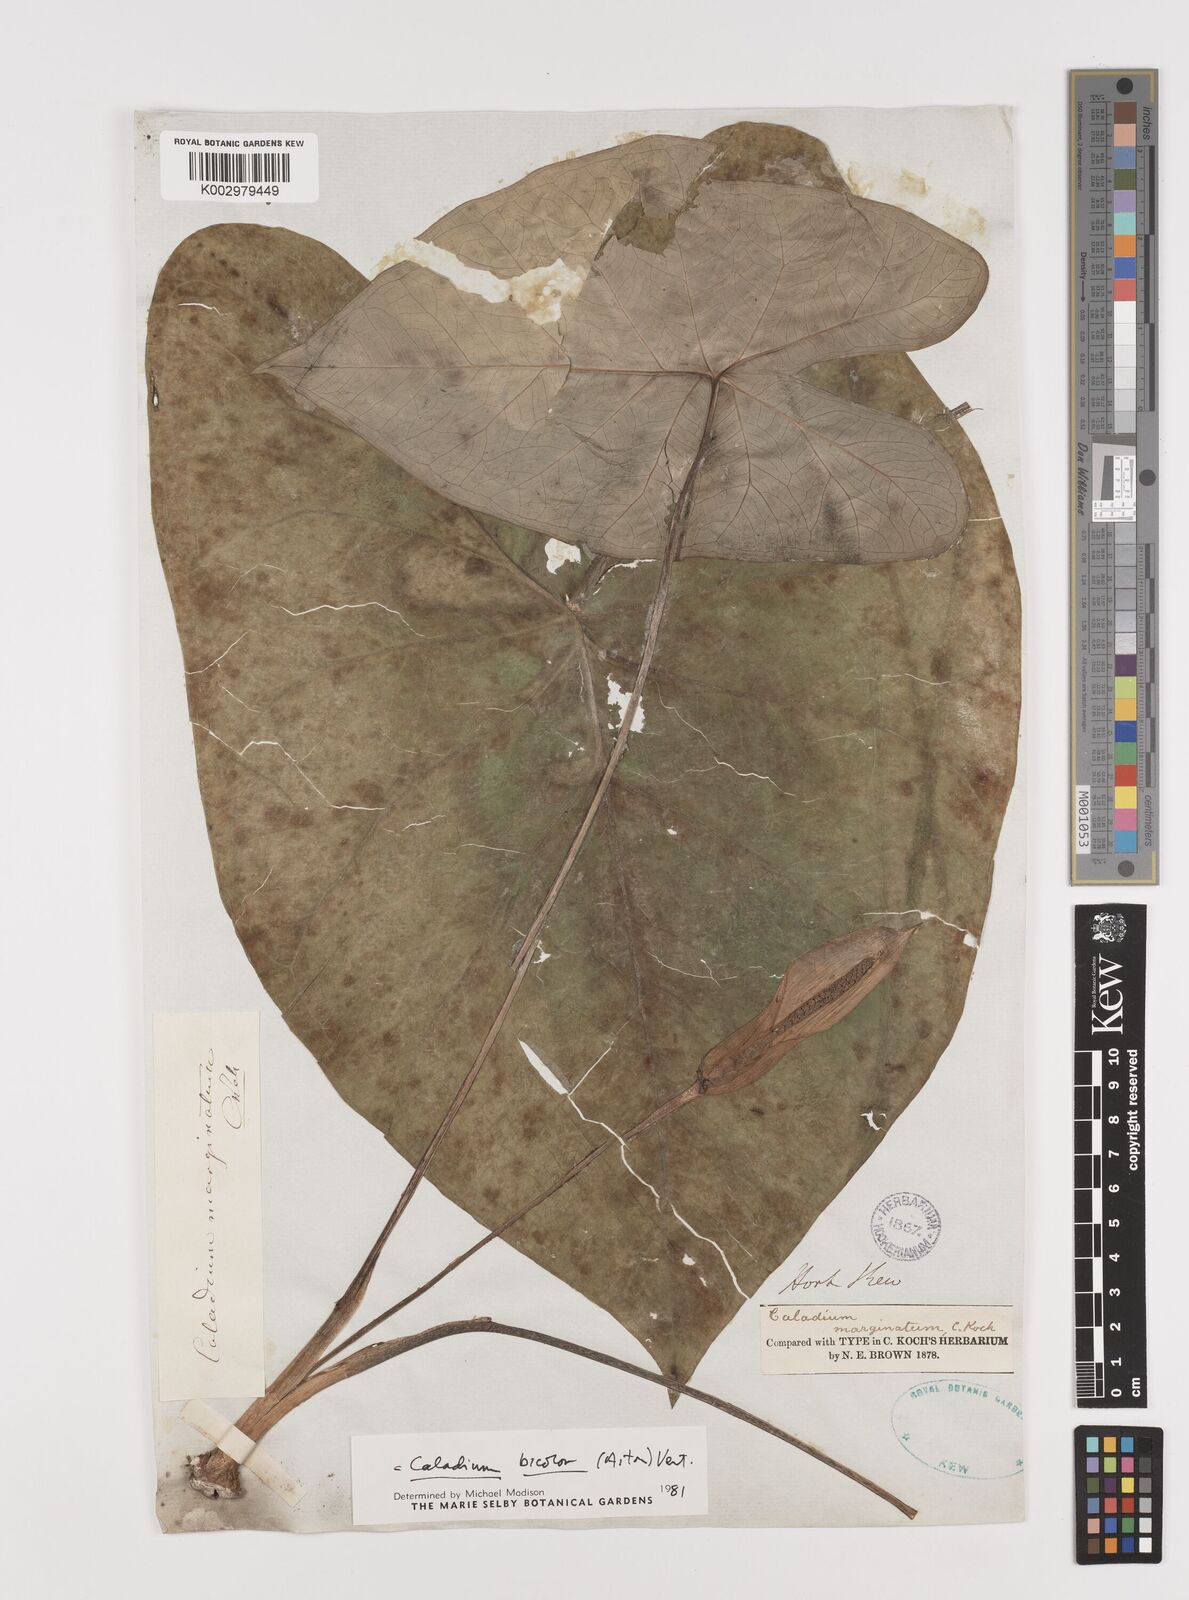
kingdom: Plantae
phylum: Tracheophyta
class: Liliopsida
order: Alismatales
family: Araceae
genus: Caladium
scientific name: Caladium bicolor
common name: Artist's pallet
